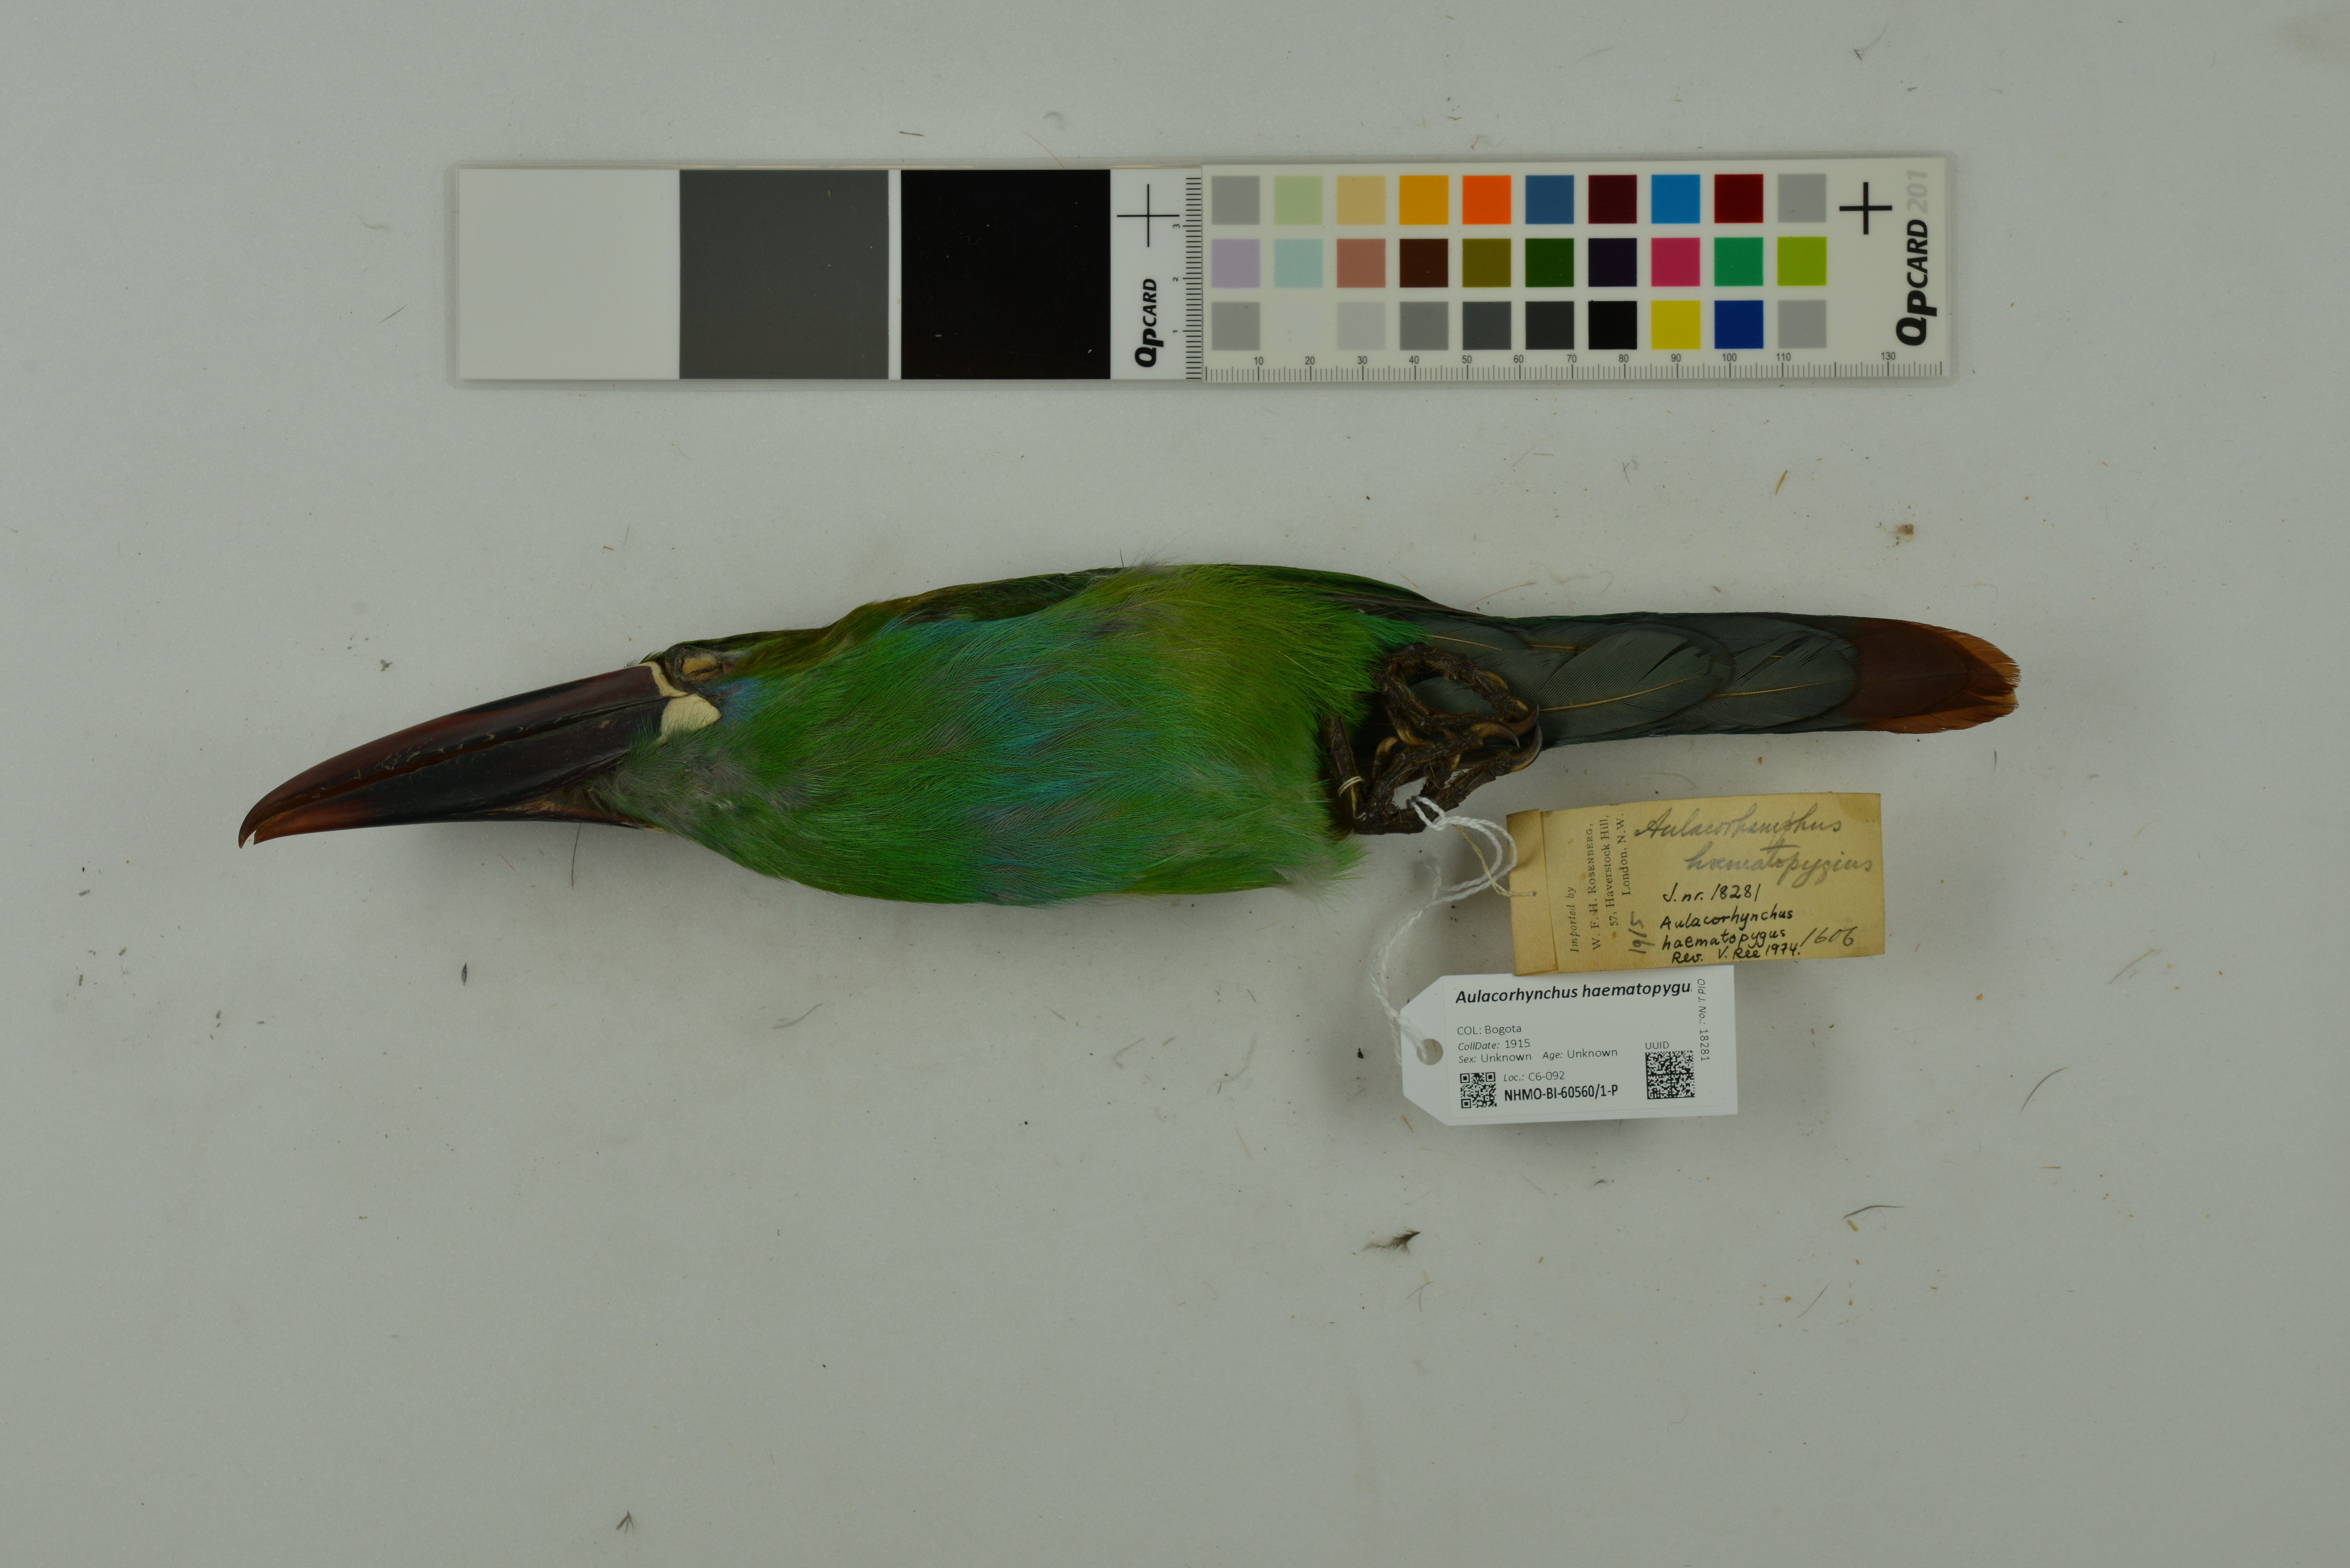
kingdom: Animalia
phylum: Chordata
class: Aves
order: Piciformes
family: Ramphastidae
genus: Aulacorhynchus
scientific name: Aulacorhynchus haematopygus
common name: Crimson-rumped toucanet
